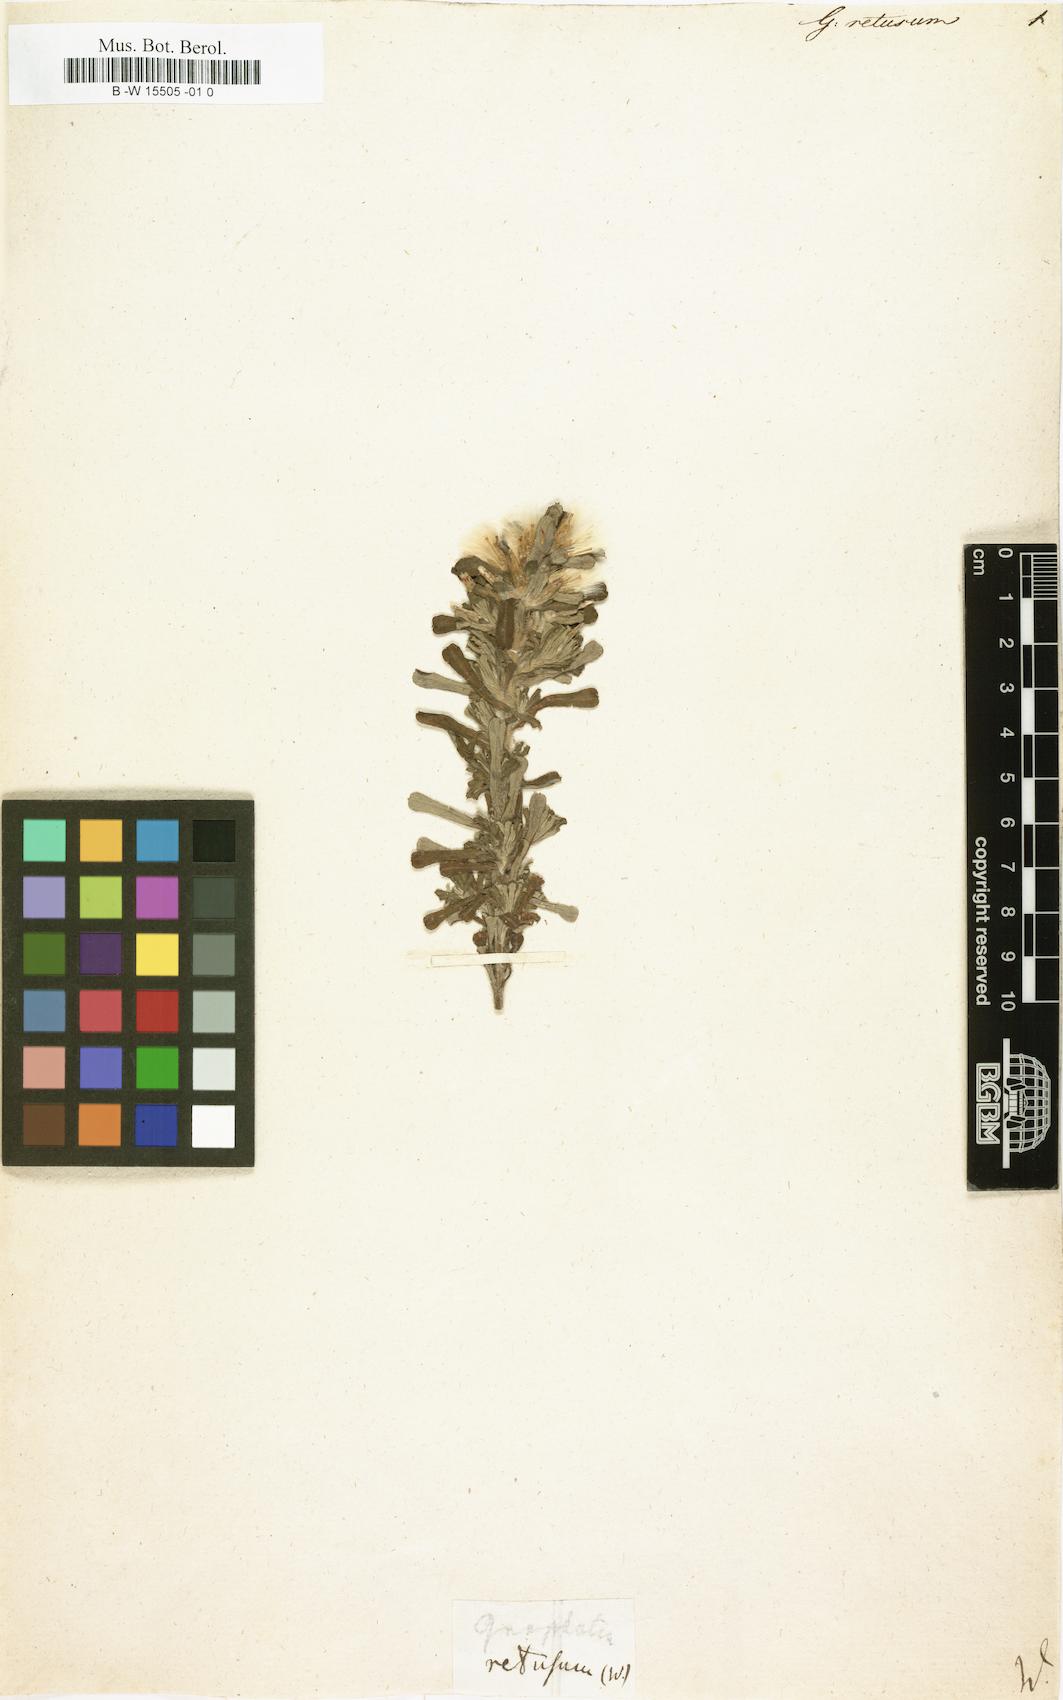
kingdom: Plantae
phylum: Tracheophyta
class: Magnoliopsida
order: Asterales
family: Asteraceae
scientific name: Asteraceae
